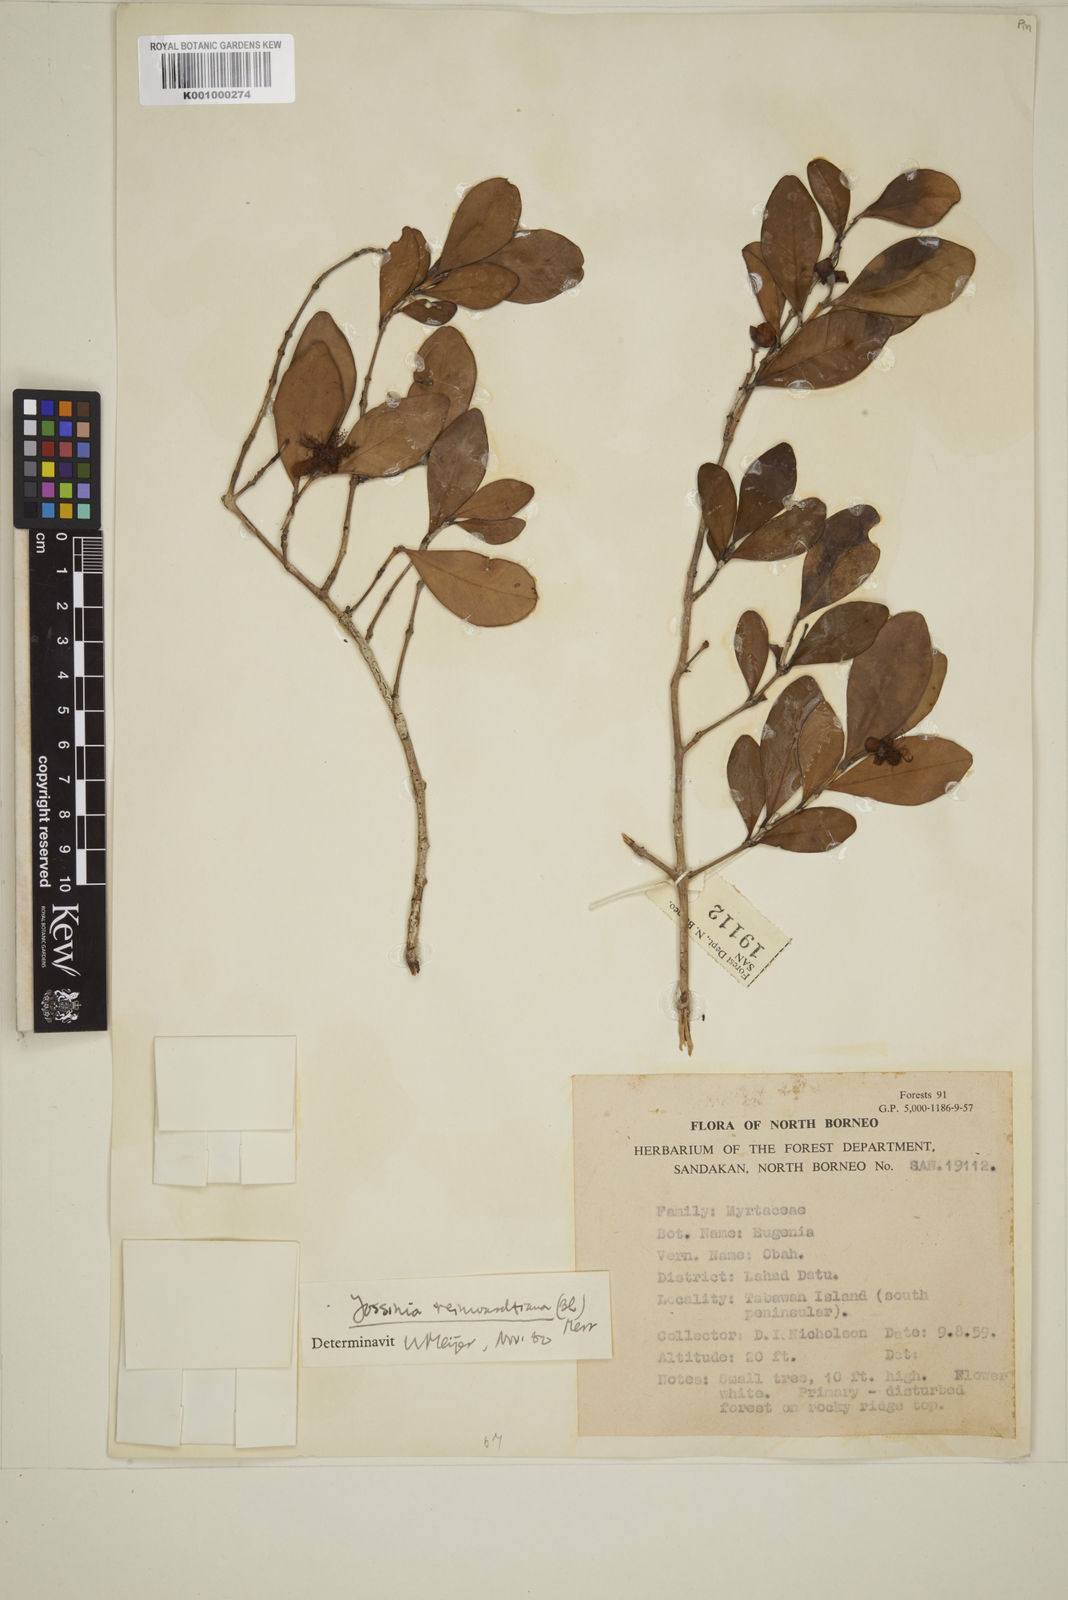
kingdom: Plantae
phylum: Tracheophyta
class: Magnoliopsida
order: Myrtales
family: Myrtaceae
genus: Eugenia
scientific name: Eugenia reinwardtiana
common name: Cedar bay-cherry
